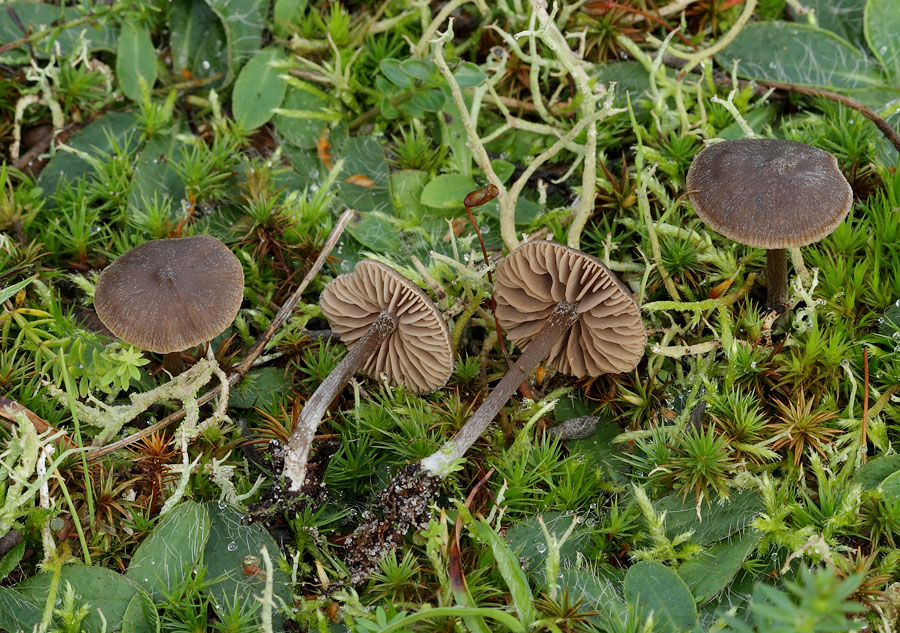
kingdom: Fungi
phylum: Basidiomycota
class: Agaricomycetes
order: Agaricales
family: Entolomataceae
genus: Entoloma
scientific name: Entoloma clandestinum
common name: tykbladet rødblad
